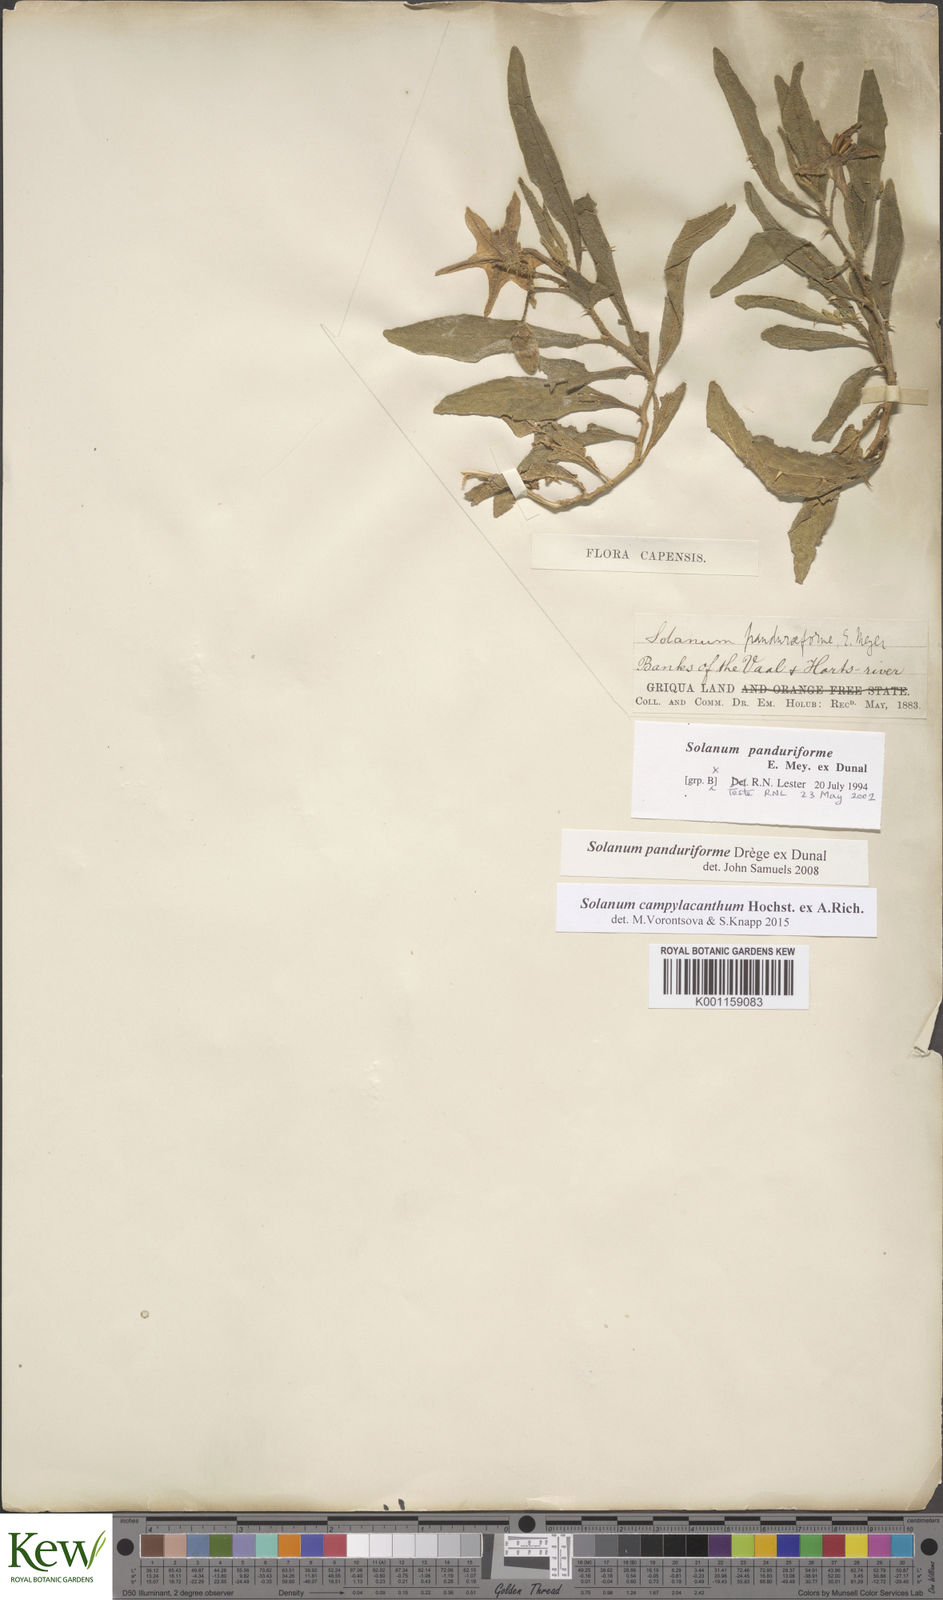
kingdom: Plantae
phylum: Tracheophyta
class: Magnoliopsida
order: Solanales
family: Solanaceae
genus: Solanum
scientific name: Solanum campylacanthum
